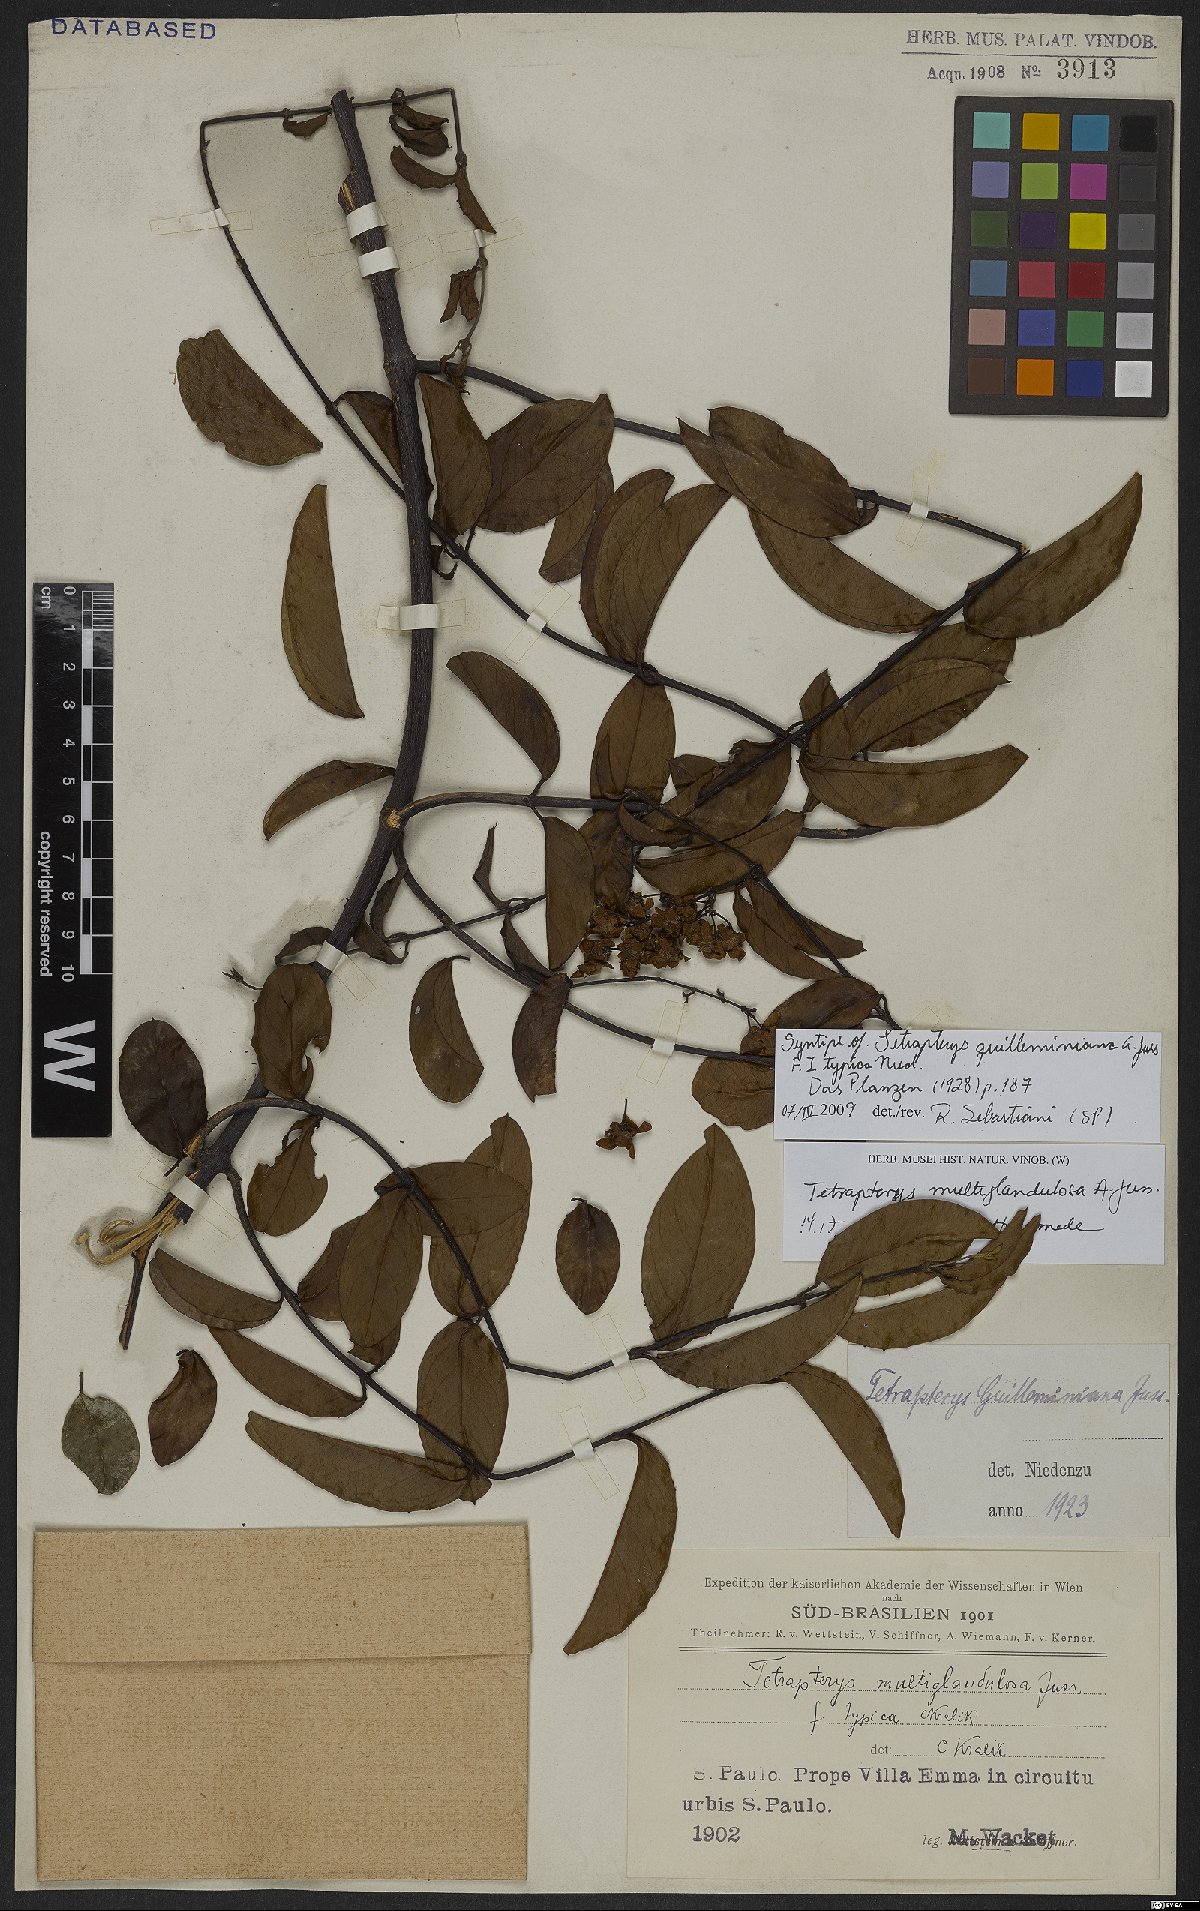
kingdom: Plantae
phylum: Tracheophyta
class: Magnoliopsida
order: Malpighiales
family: Malpighiaceae
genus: Niedenzuella
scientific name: Niedenzuella multiglandulosa
